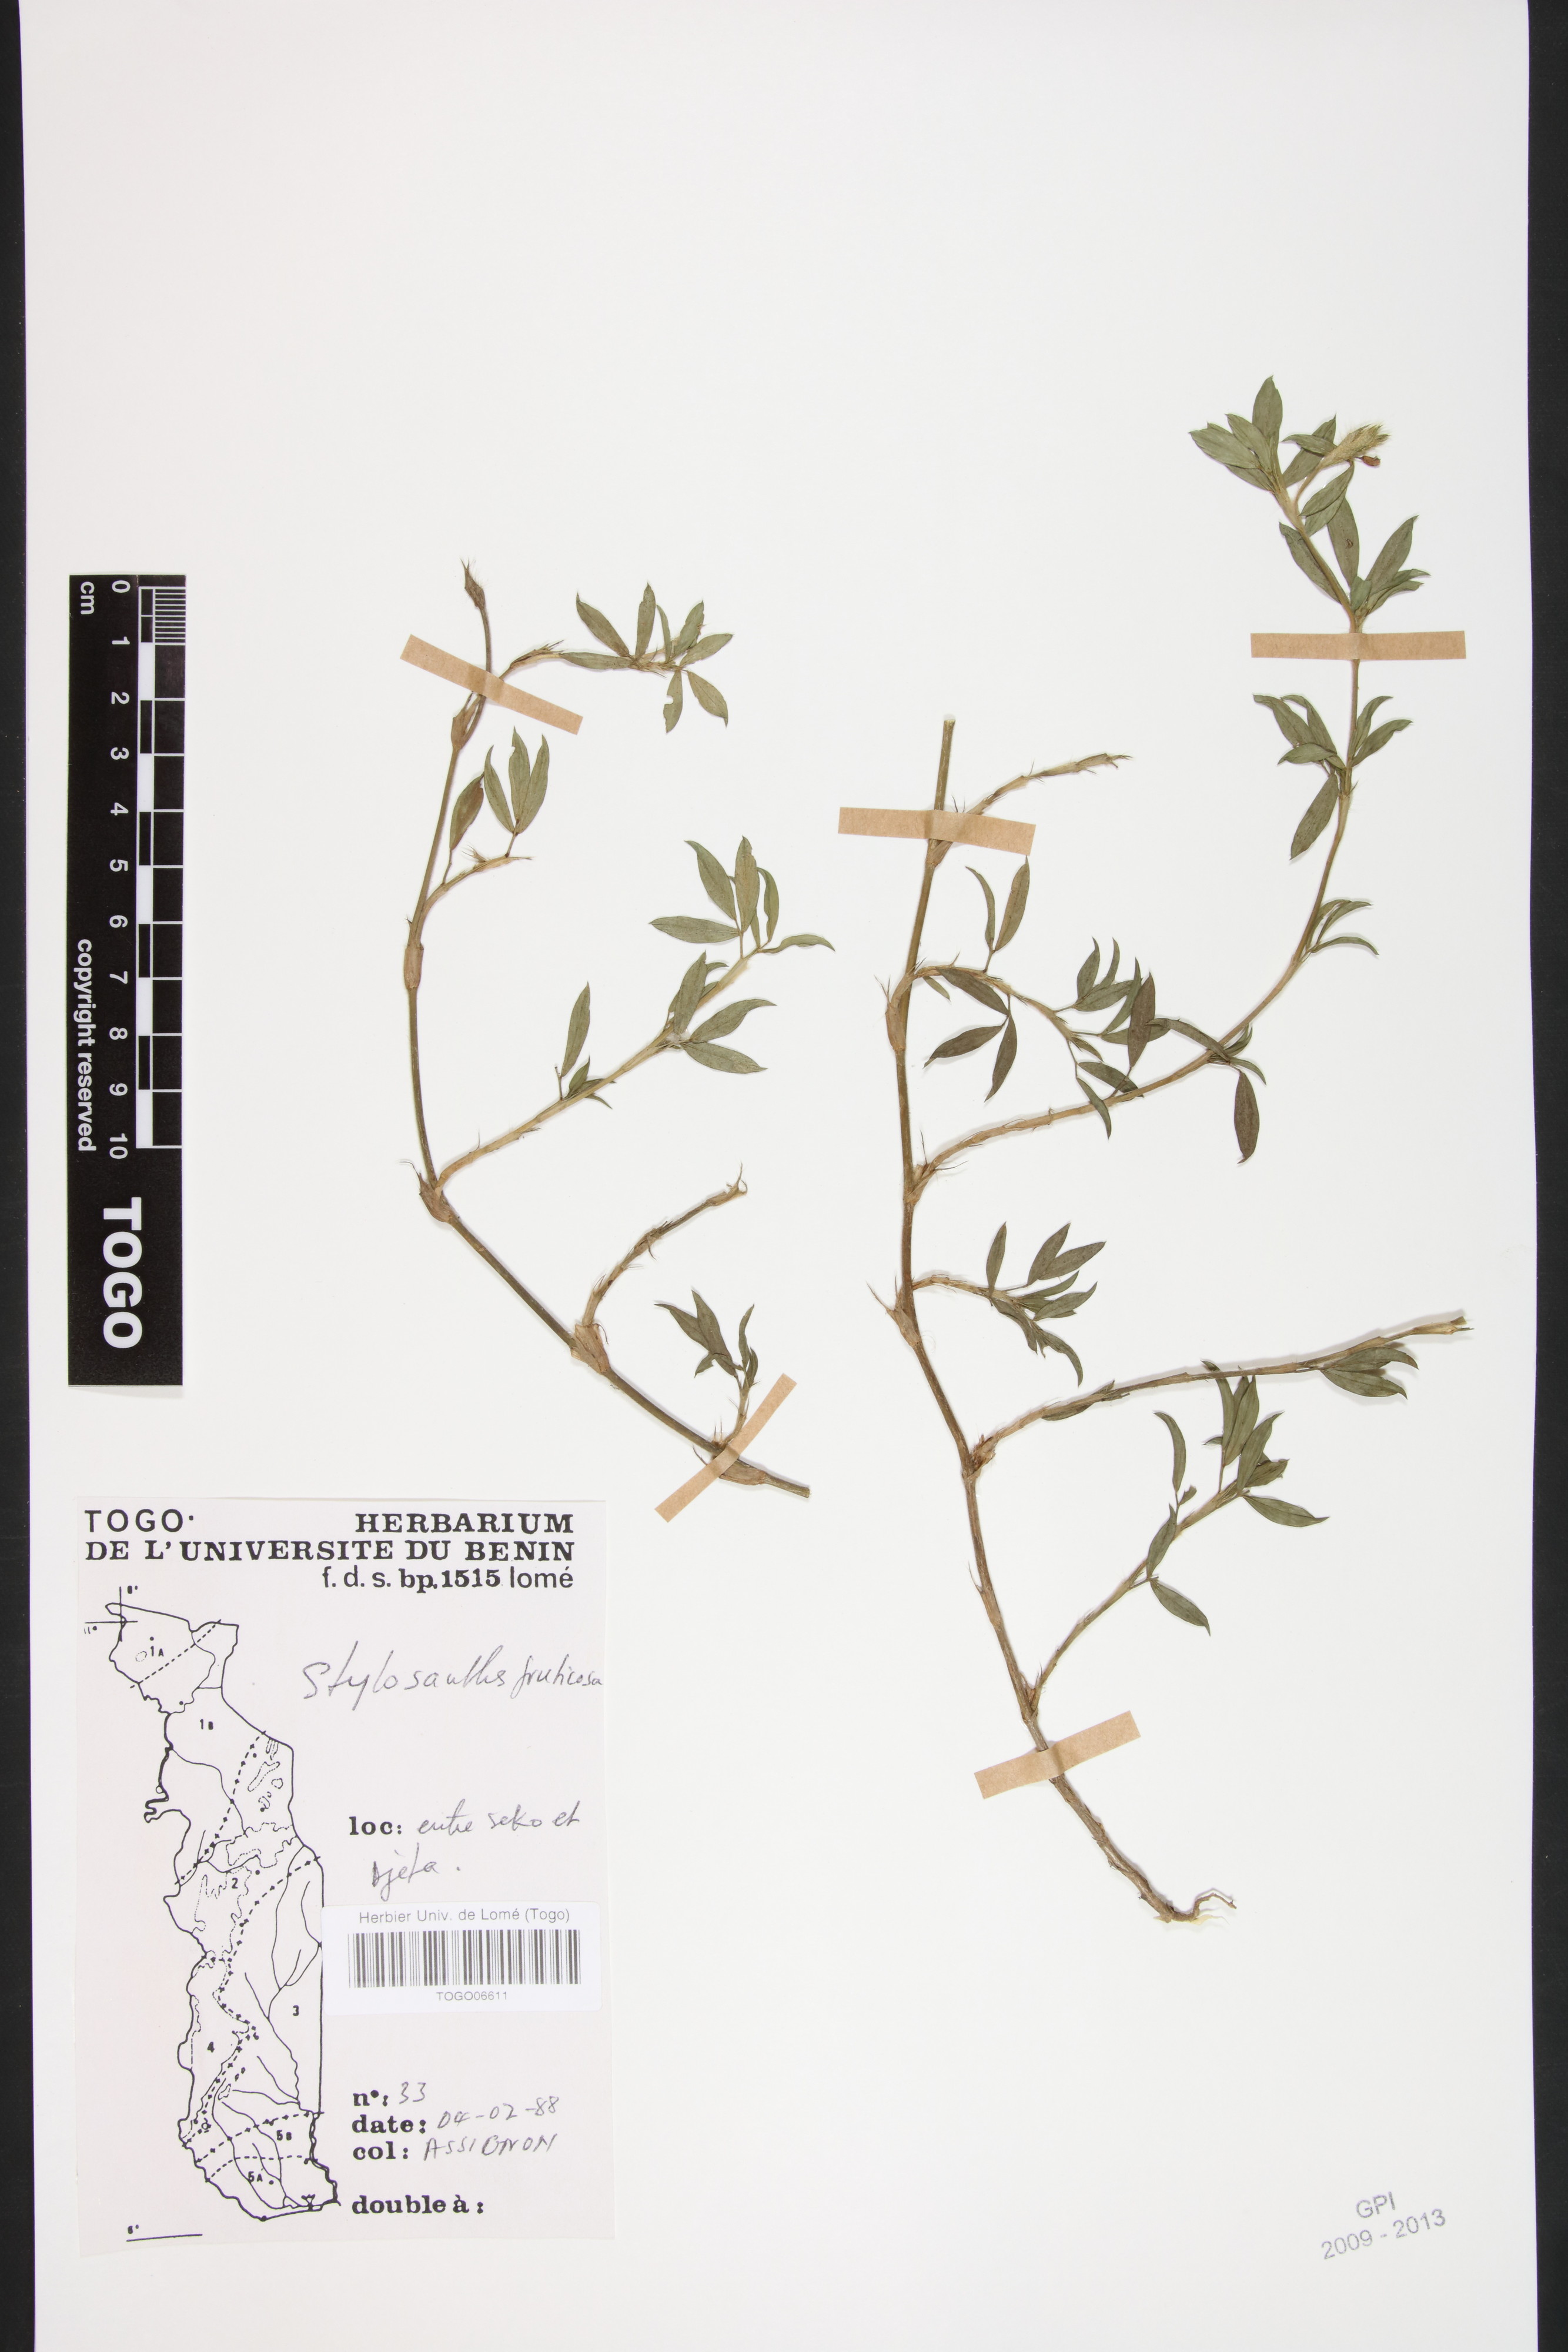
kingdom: Plantae
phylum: Tracheophyta
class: Magnoliopsida
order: Fabales
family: Fabaceae
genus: Stylosanthes
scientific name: Stylosanthes fruticosa
